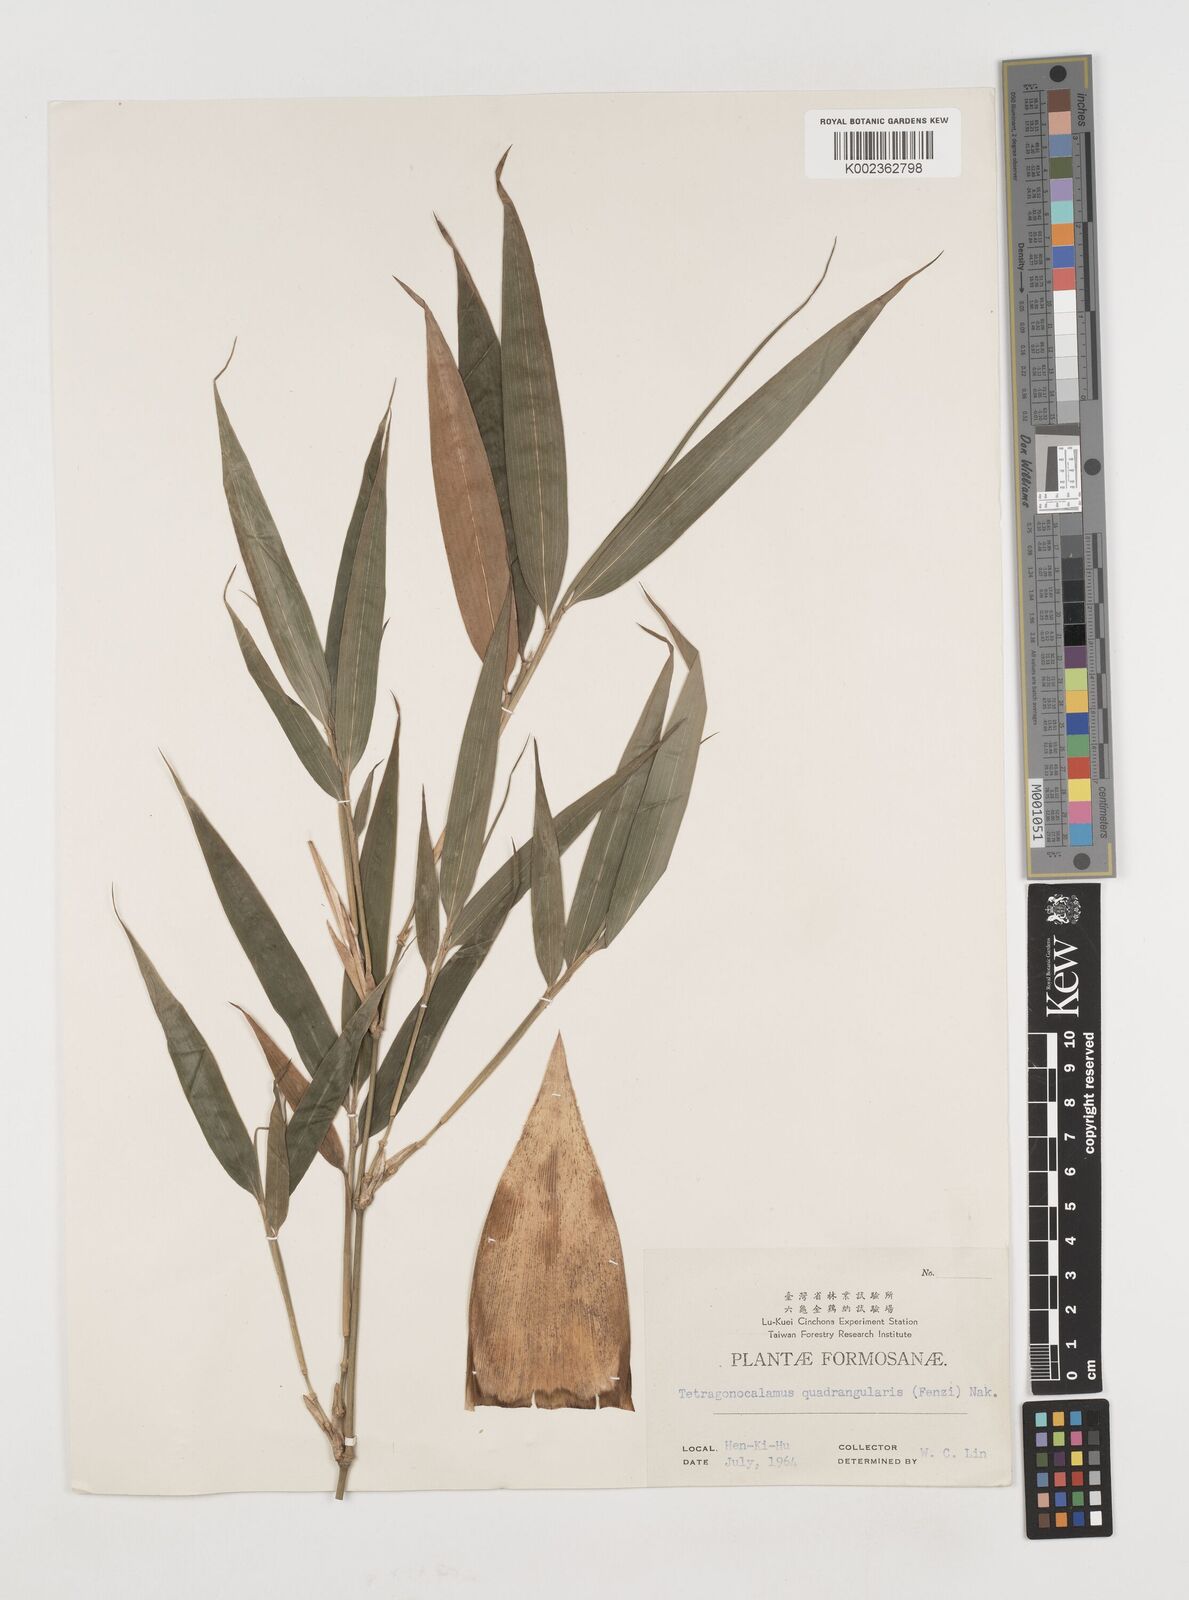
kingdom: Plantae
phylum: Tracheophyta
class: Liliopsida
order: Poales
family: Poaceae
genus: Chimonobambusa
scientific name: Chimonobambusa quadrangularis
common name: Square-stemmed bamboo
